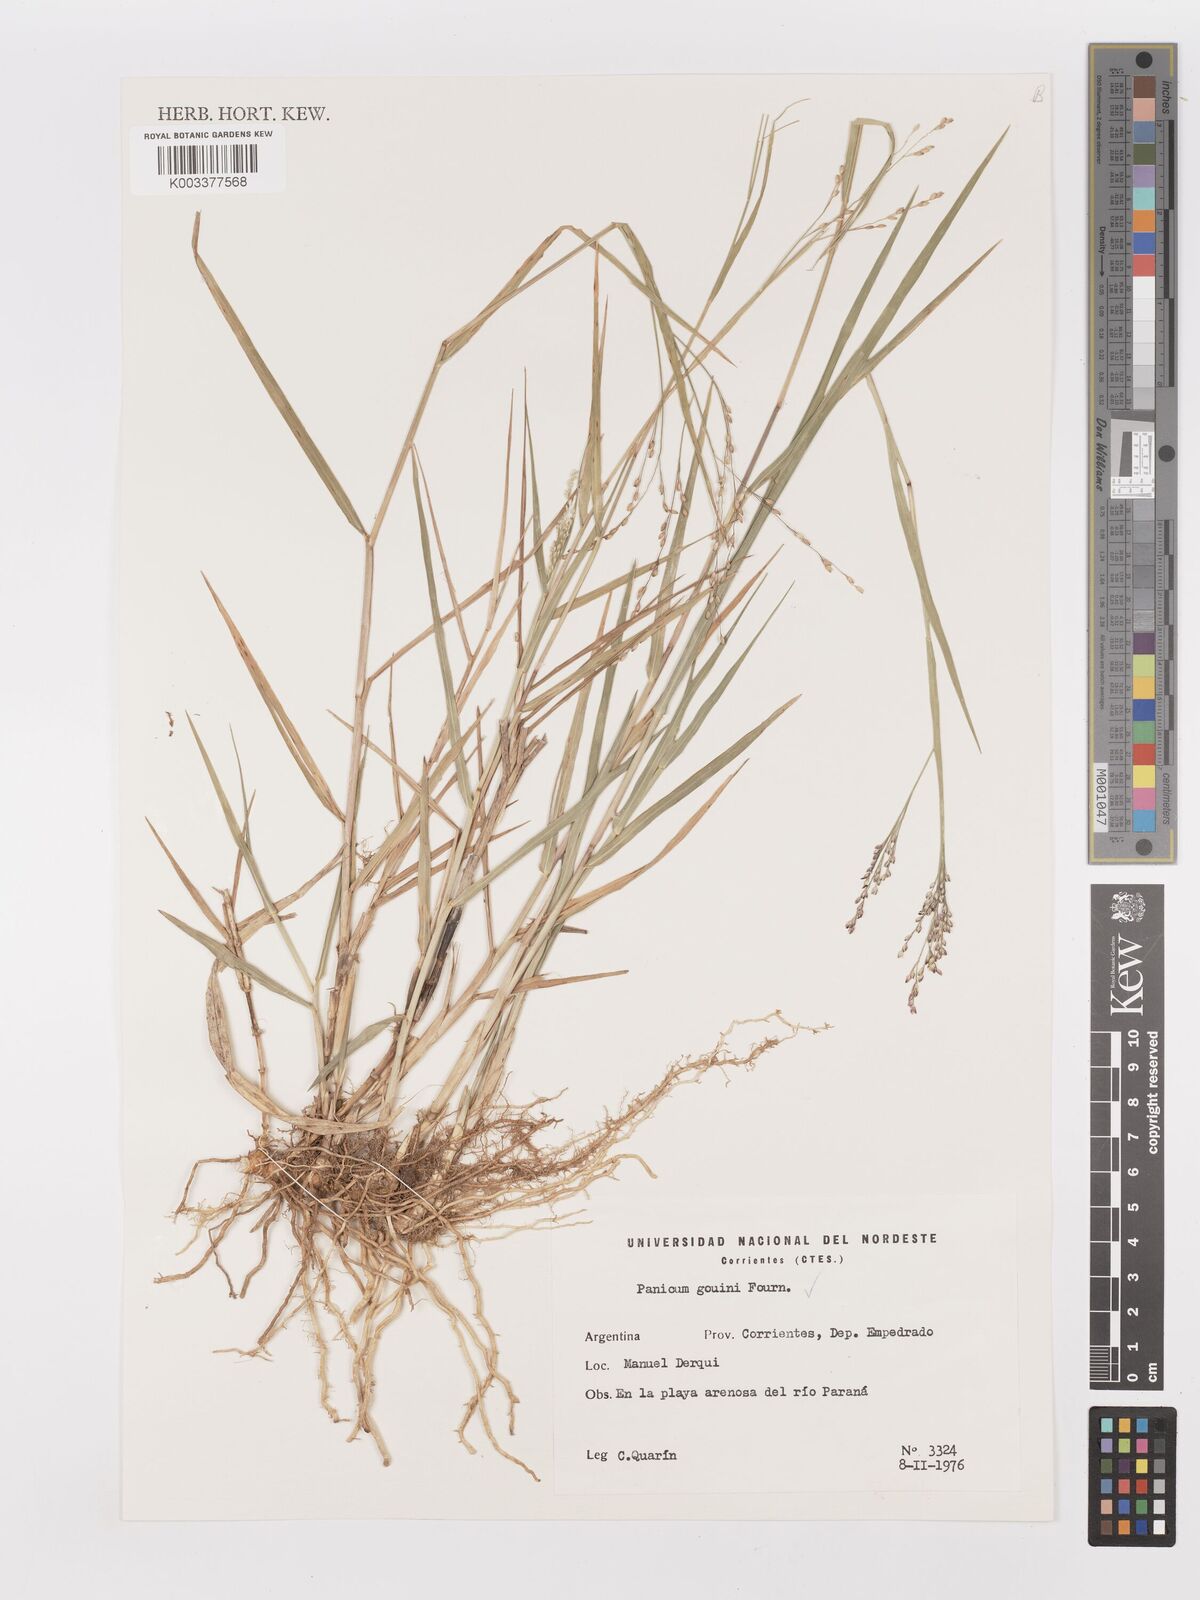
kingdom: Plantae
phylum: Tracheophyta
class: Liliopsida
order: Poales
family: Poaceae
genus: Urochloa
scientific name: Urochloa rudis
